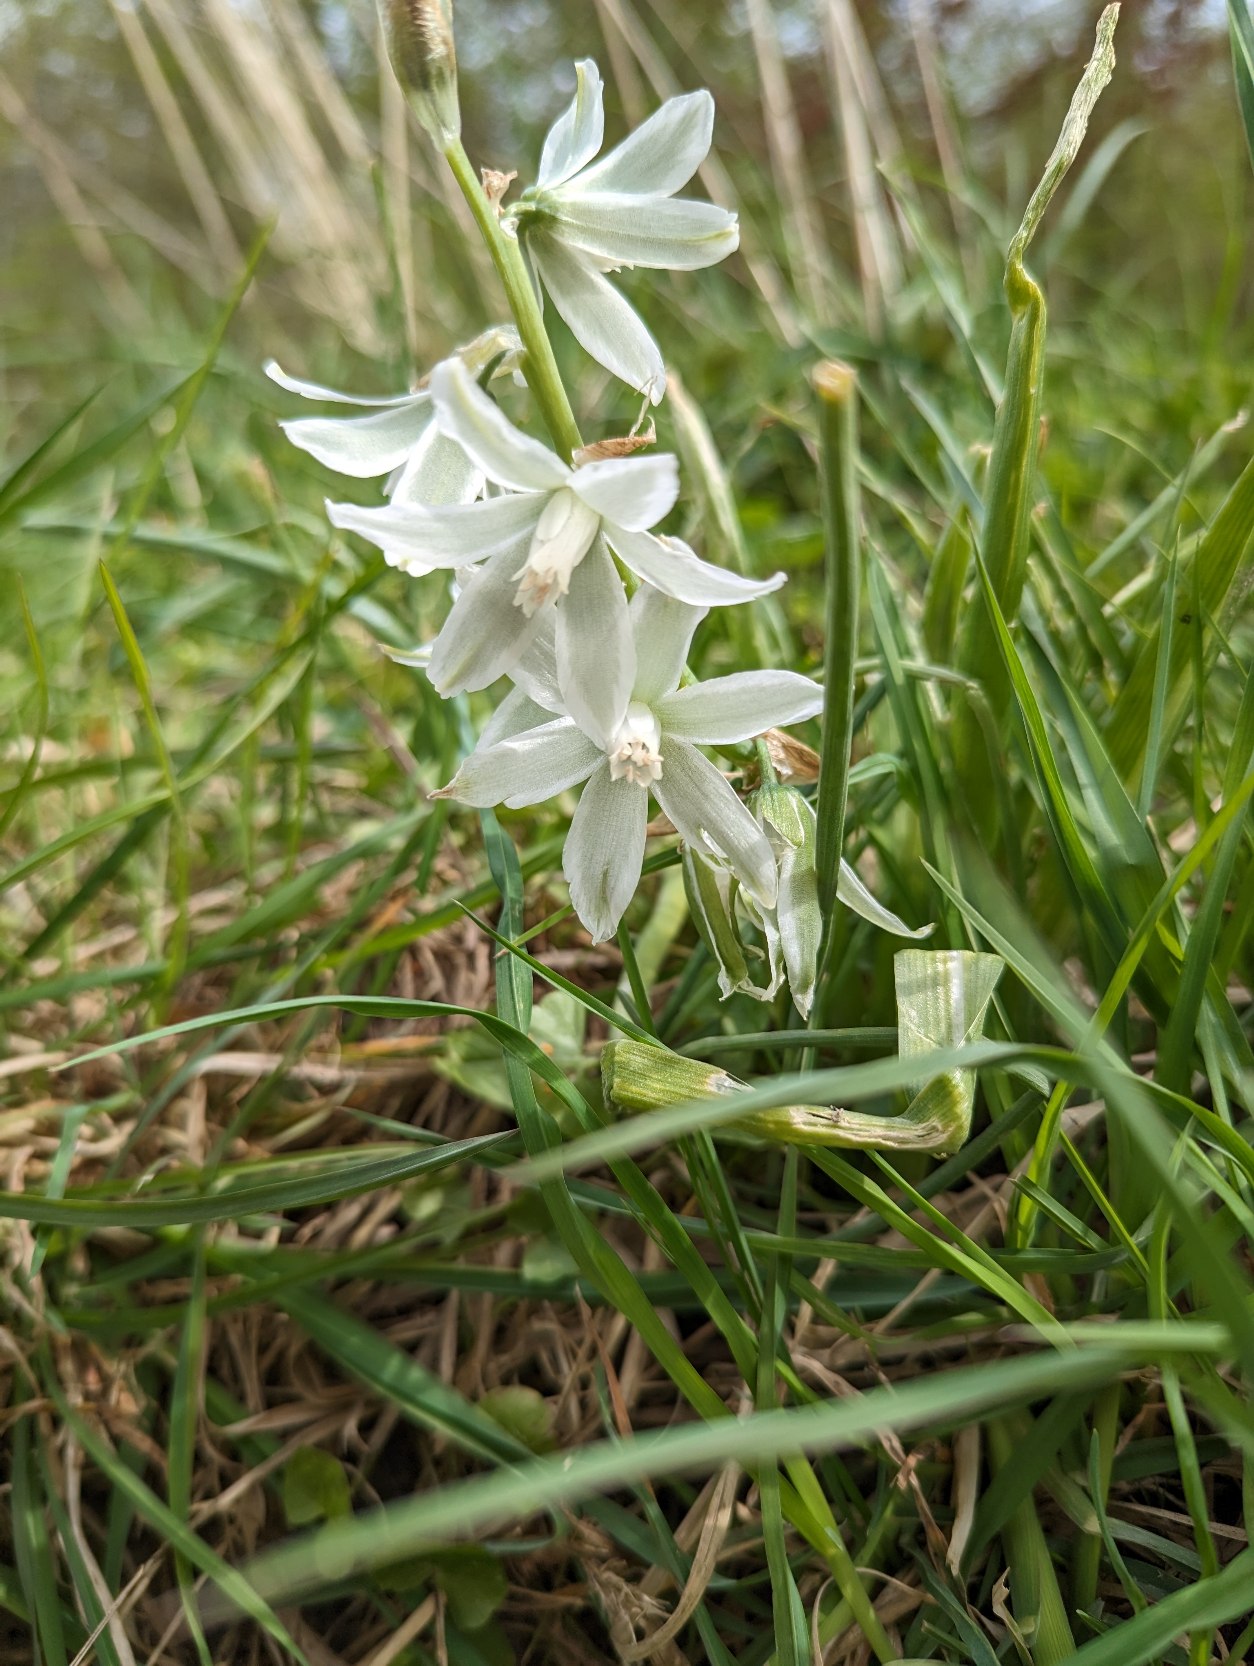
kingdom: Plantae
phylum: Tracheophyta
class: Liliopsida
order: Asparagales
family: Asparagaceae
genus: Ornithogalum
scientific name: Ornithogalum nutans
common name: Nikkende fuglemælk
